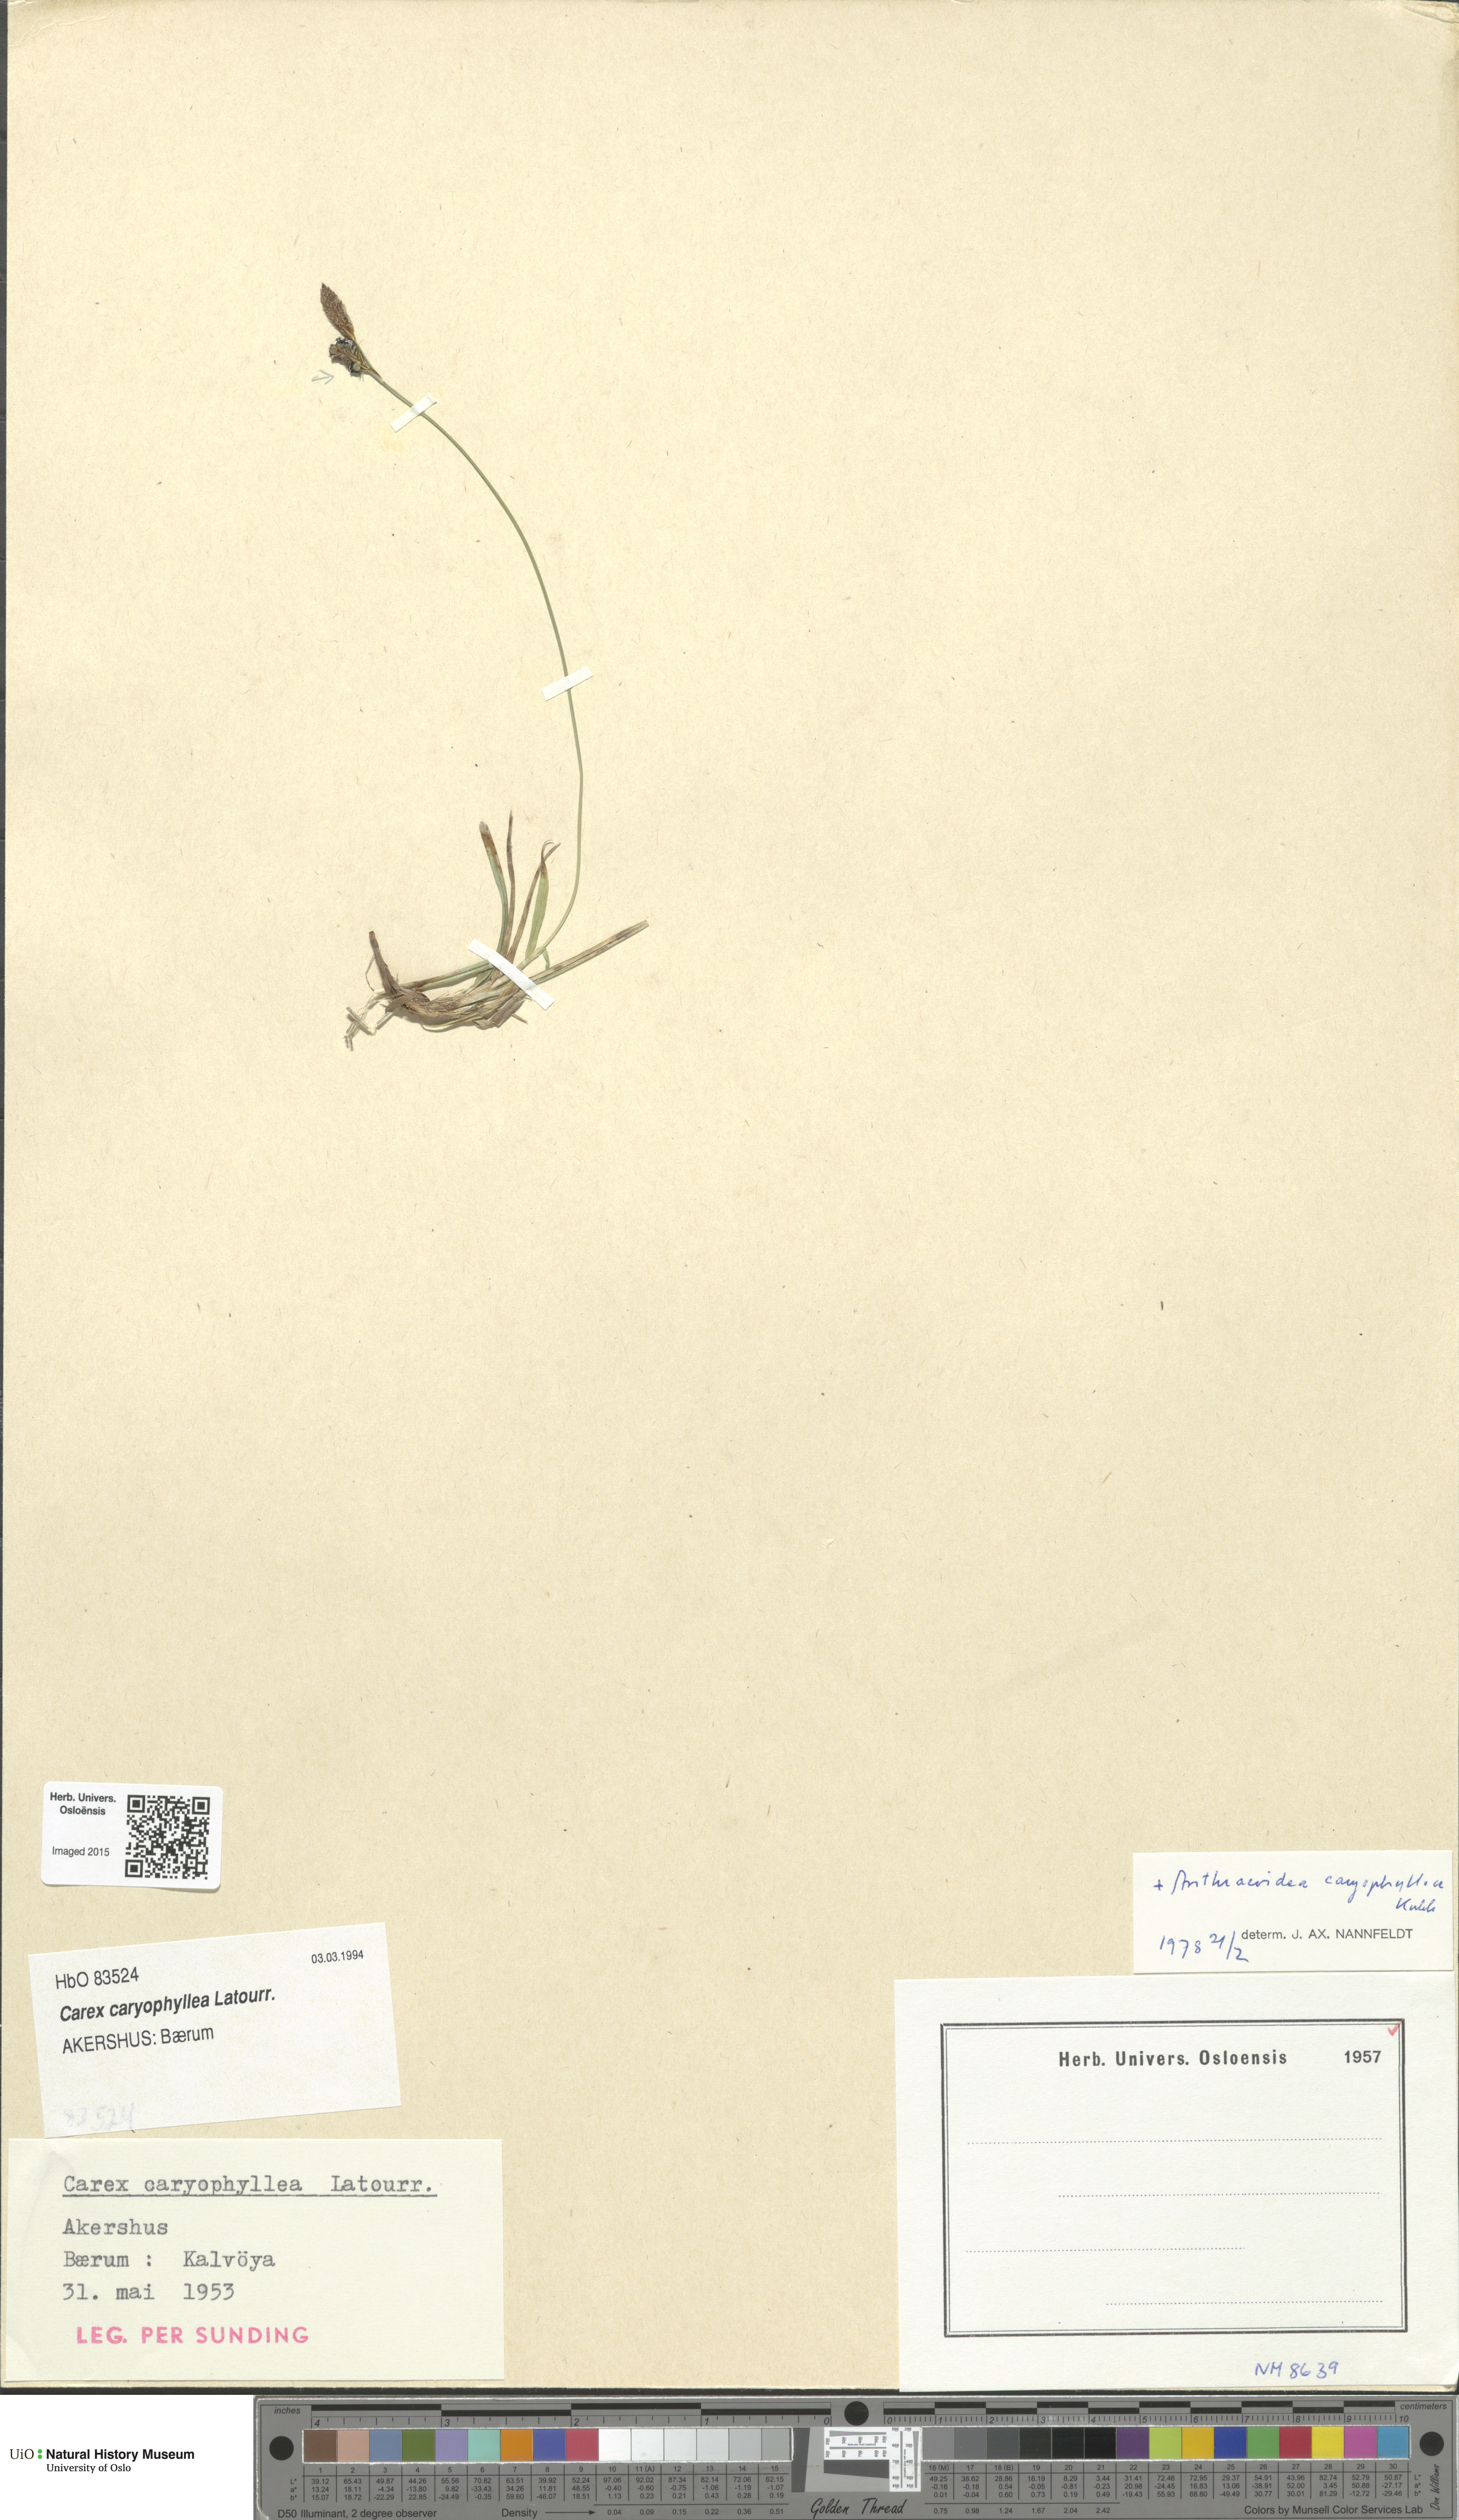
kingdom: Plantae
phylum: Tracheophyta
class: Liliopsida
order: Poales
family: Cyperaceae
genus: Carex
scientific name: Carex caryophyllea
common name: Spring sedge
